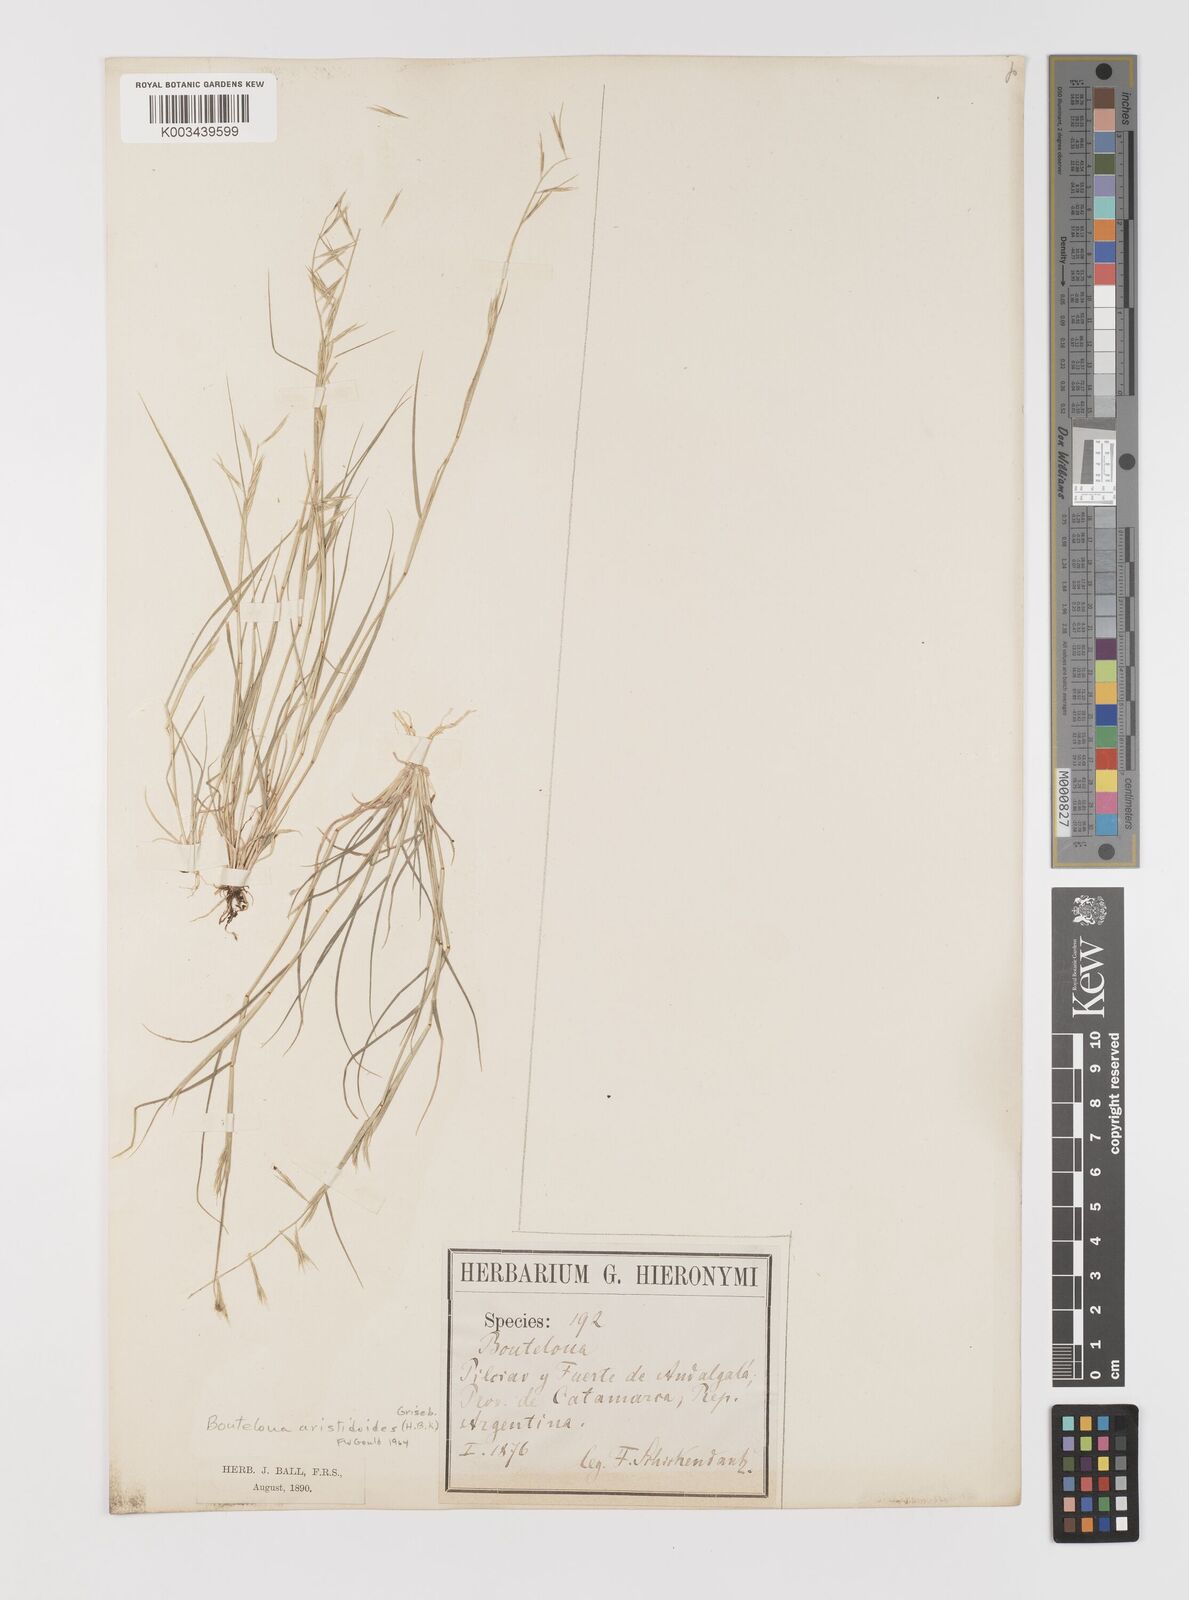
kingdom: Plantae
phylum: Tracheophyta
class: Liliopsida
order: Poales
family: Poaceae
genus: Bouteloua
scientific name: Bouteloua
